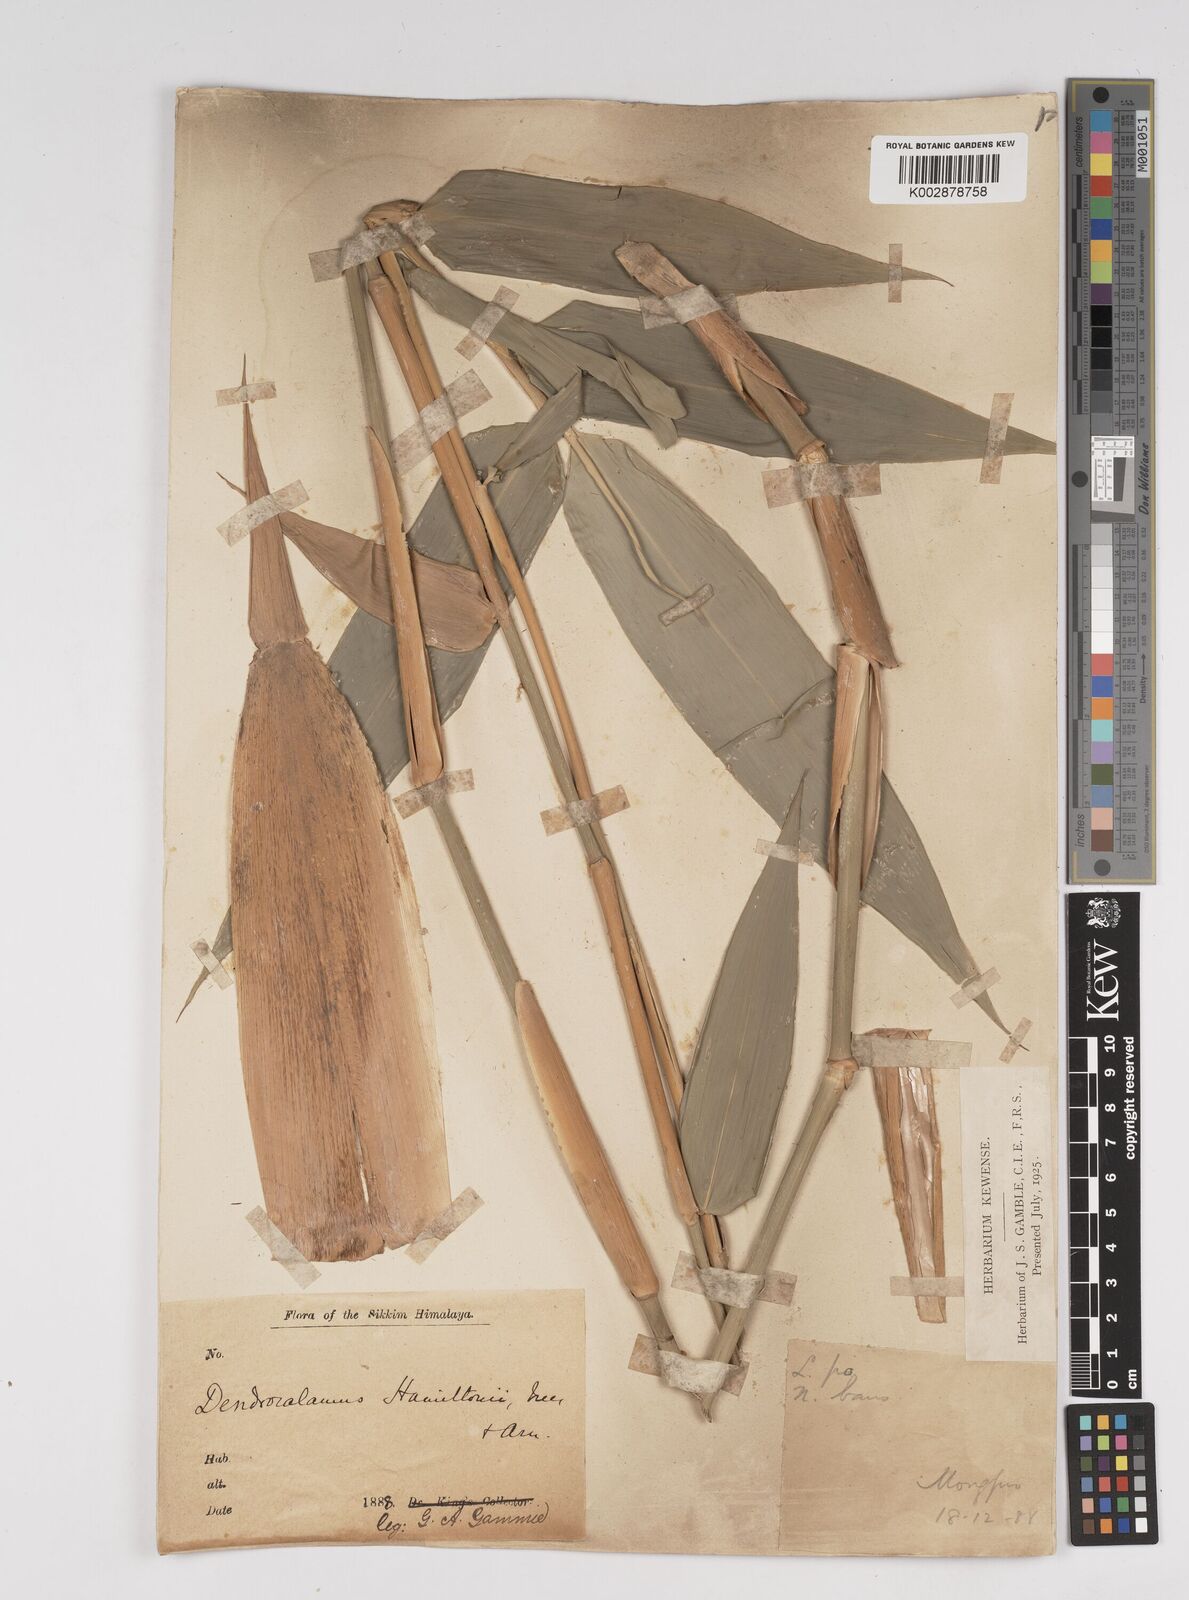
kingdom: Plantae
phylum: Tracheophyta
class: Liliopsida
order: Poales
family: Poaceae
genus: Dendrocalamus
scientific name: Dendrocalamus hamiltonii
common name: Tama bamboo
